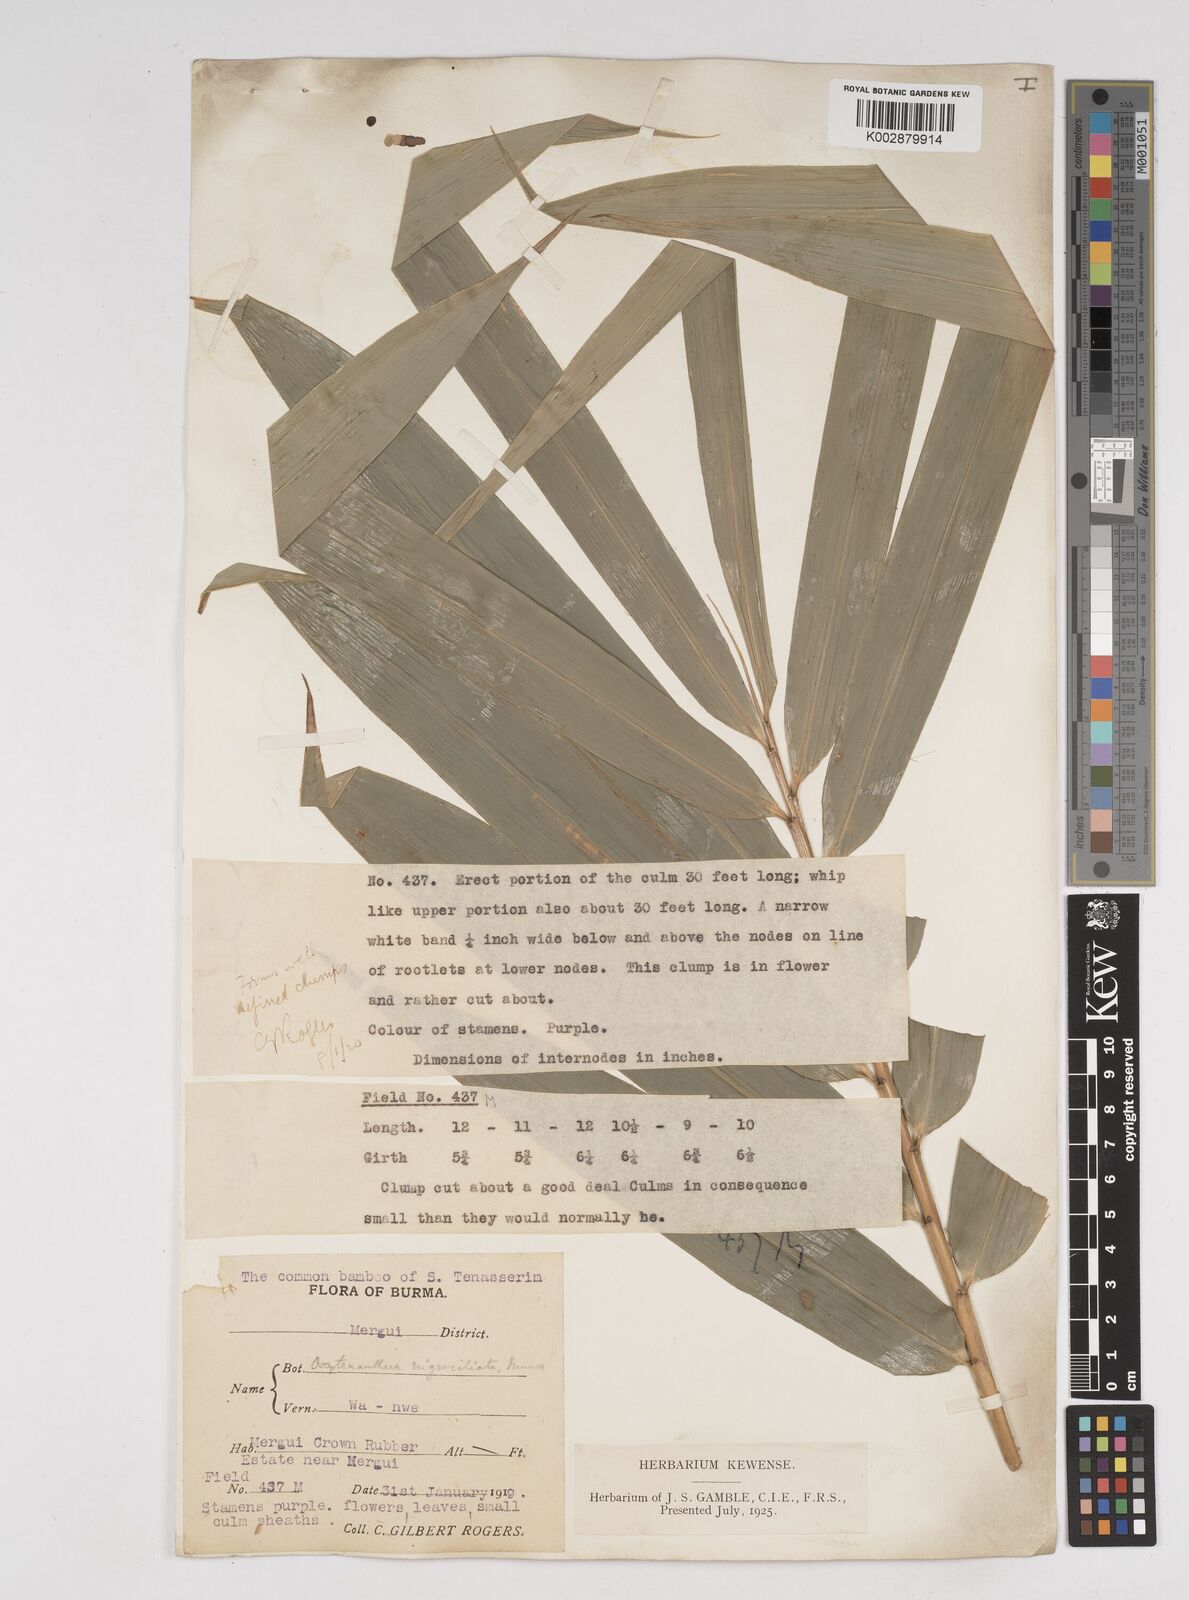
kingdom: Plantae
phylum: Tracheophyta
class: Liliopsida
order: Poales
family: Poaceae
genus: Gigantochloa
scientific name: Gigantochloa nigrociliata
